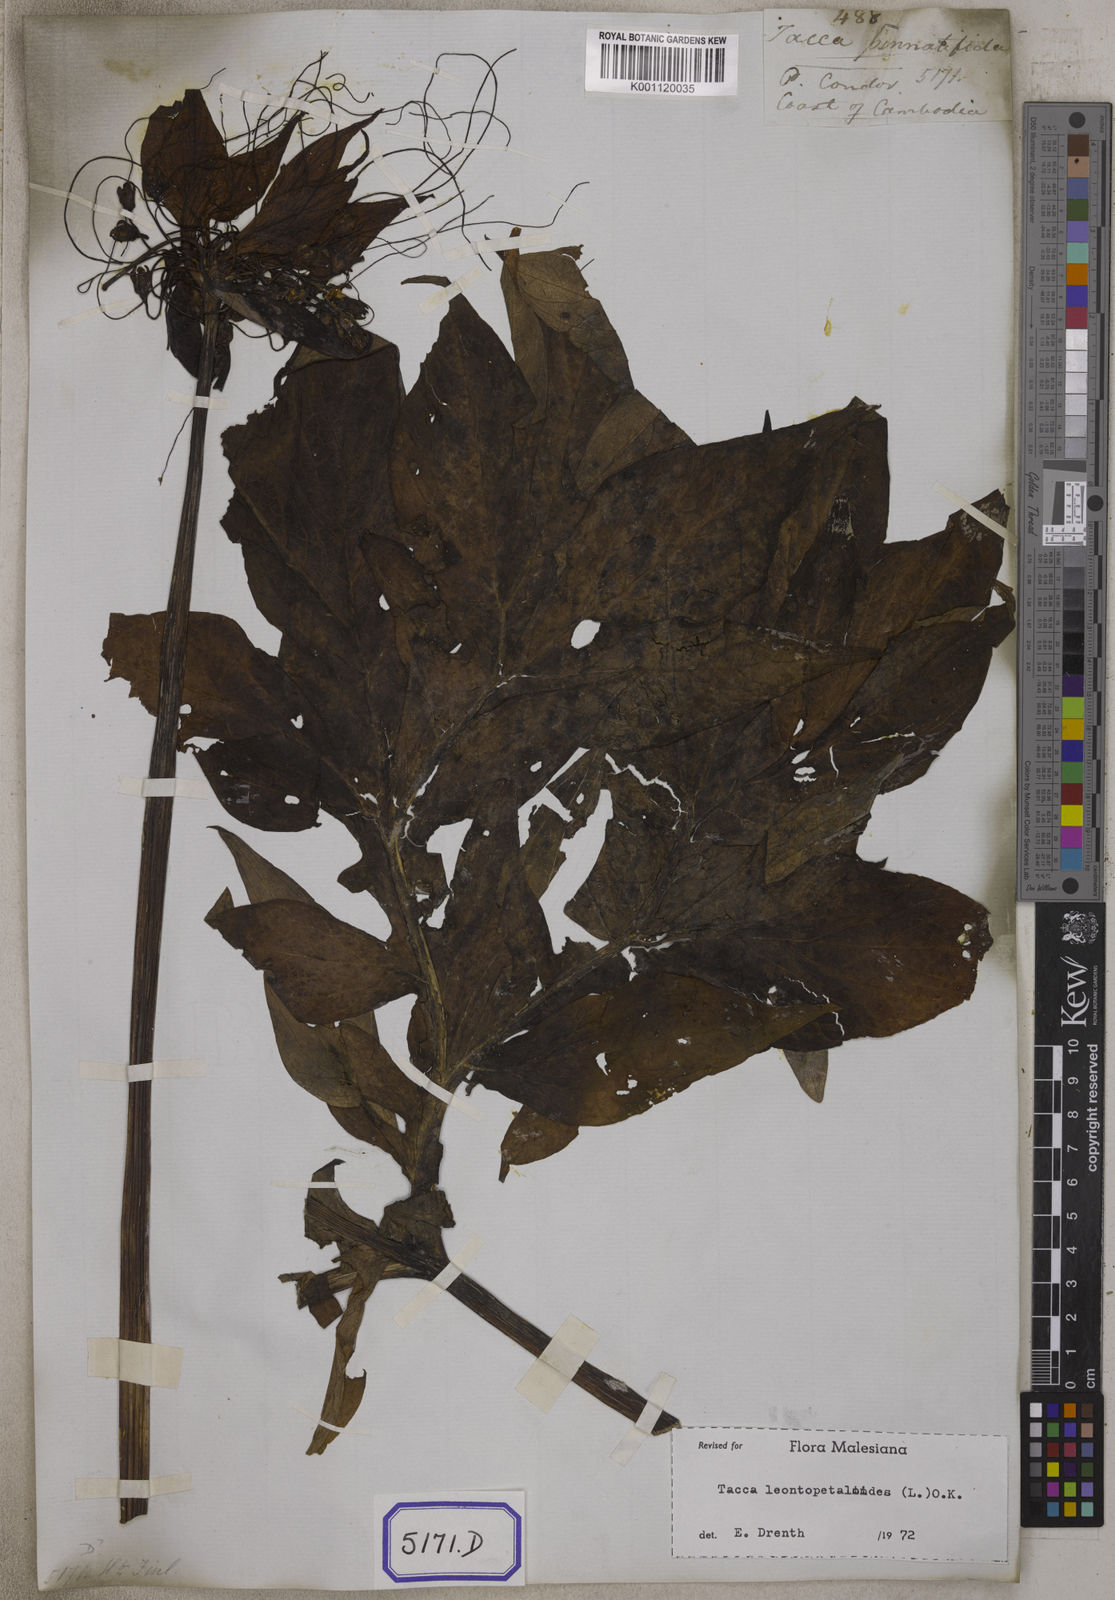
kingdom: Plantae
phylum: Tracheophyta
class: Liliopsida
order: Dioscoreales
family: Dioscoreaceae
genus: Tacca
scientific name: Tacca
